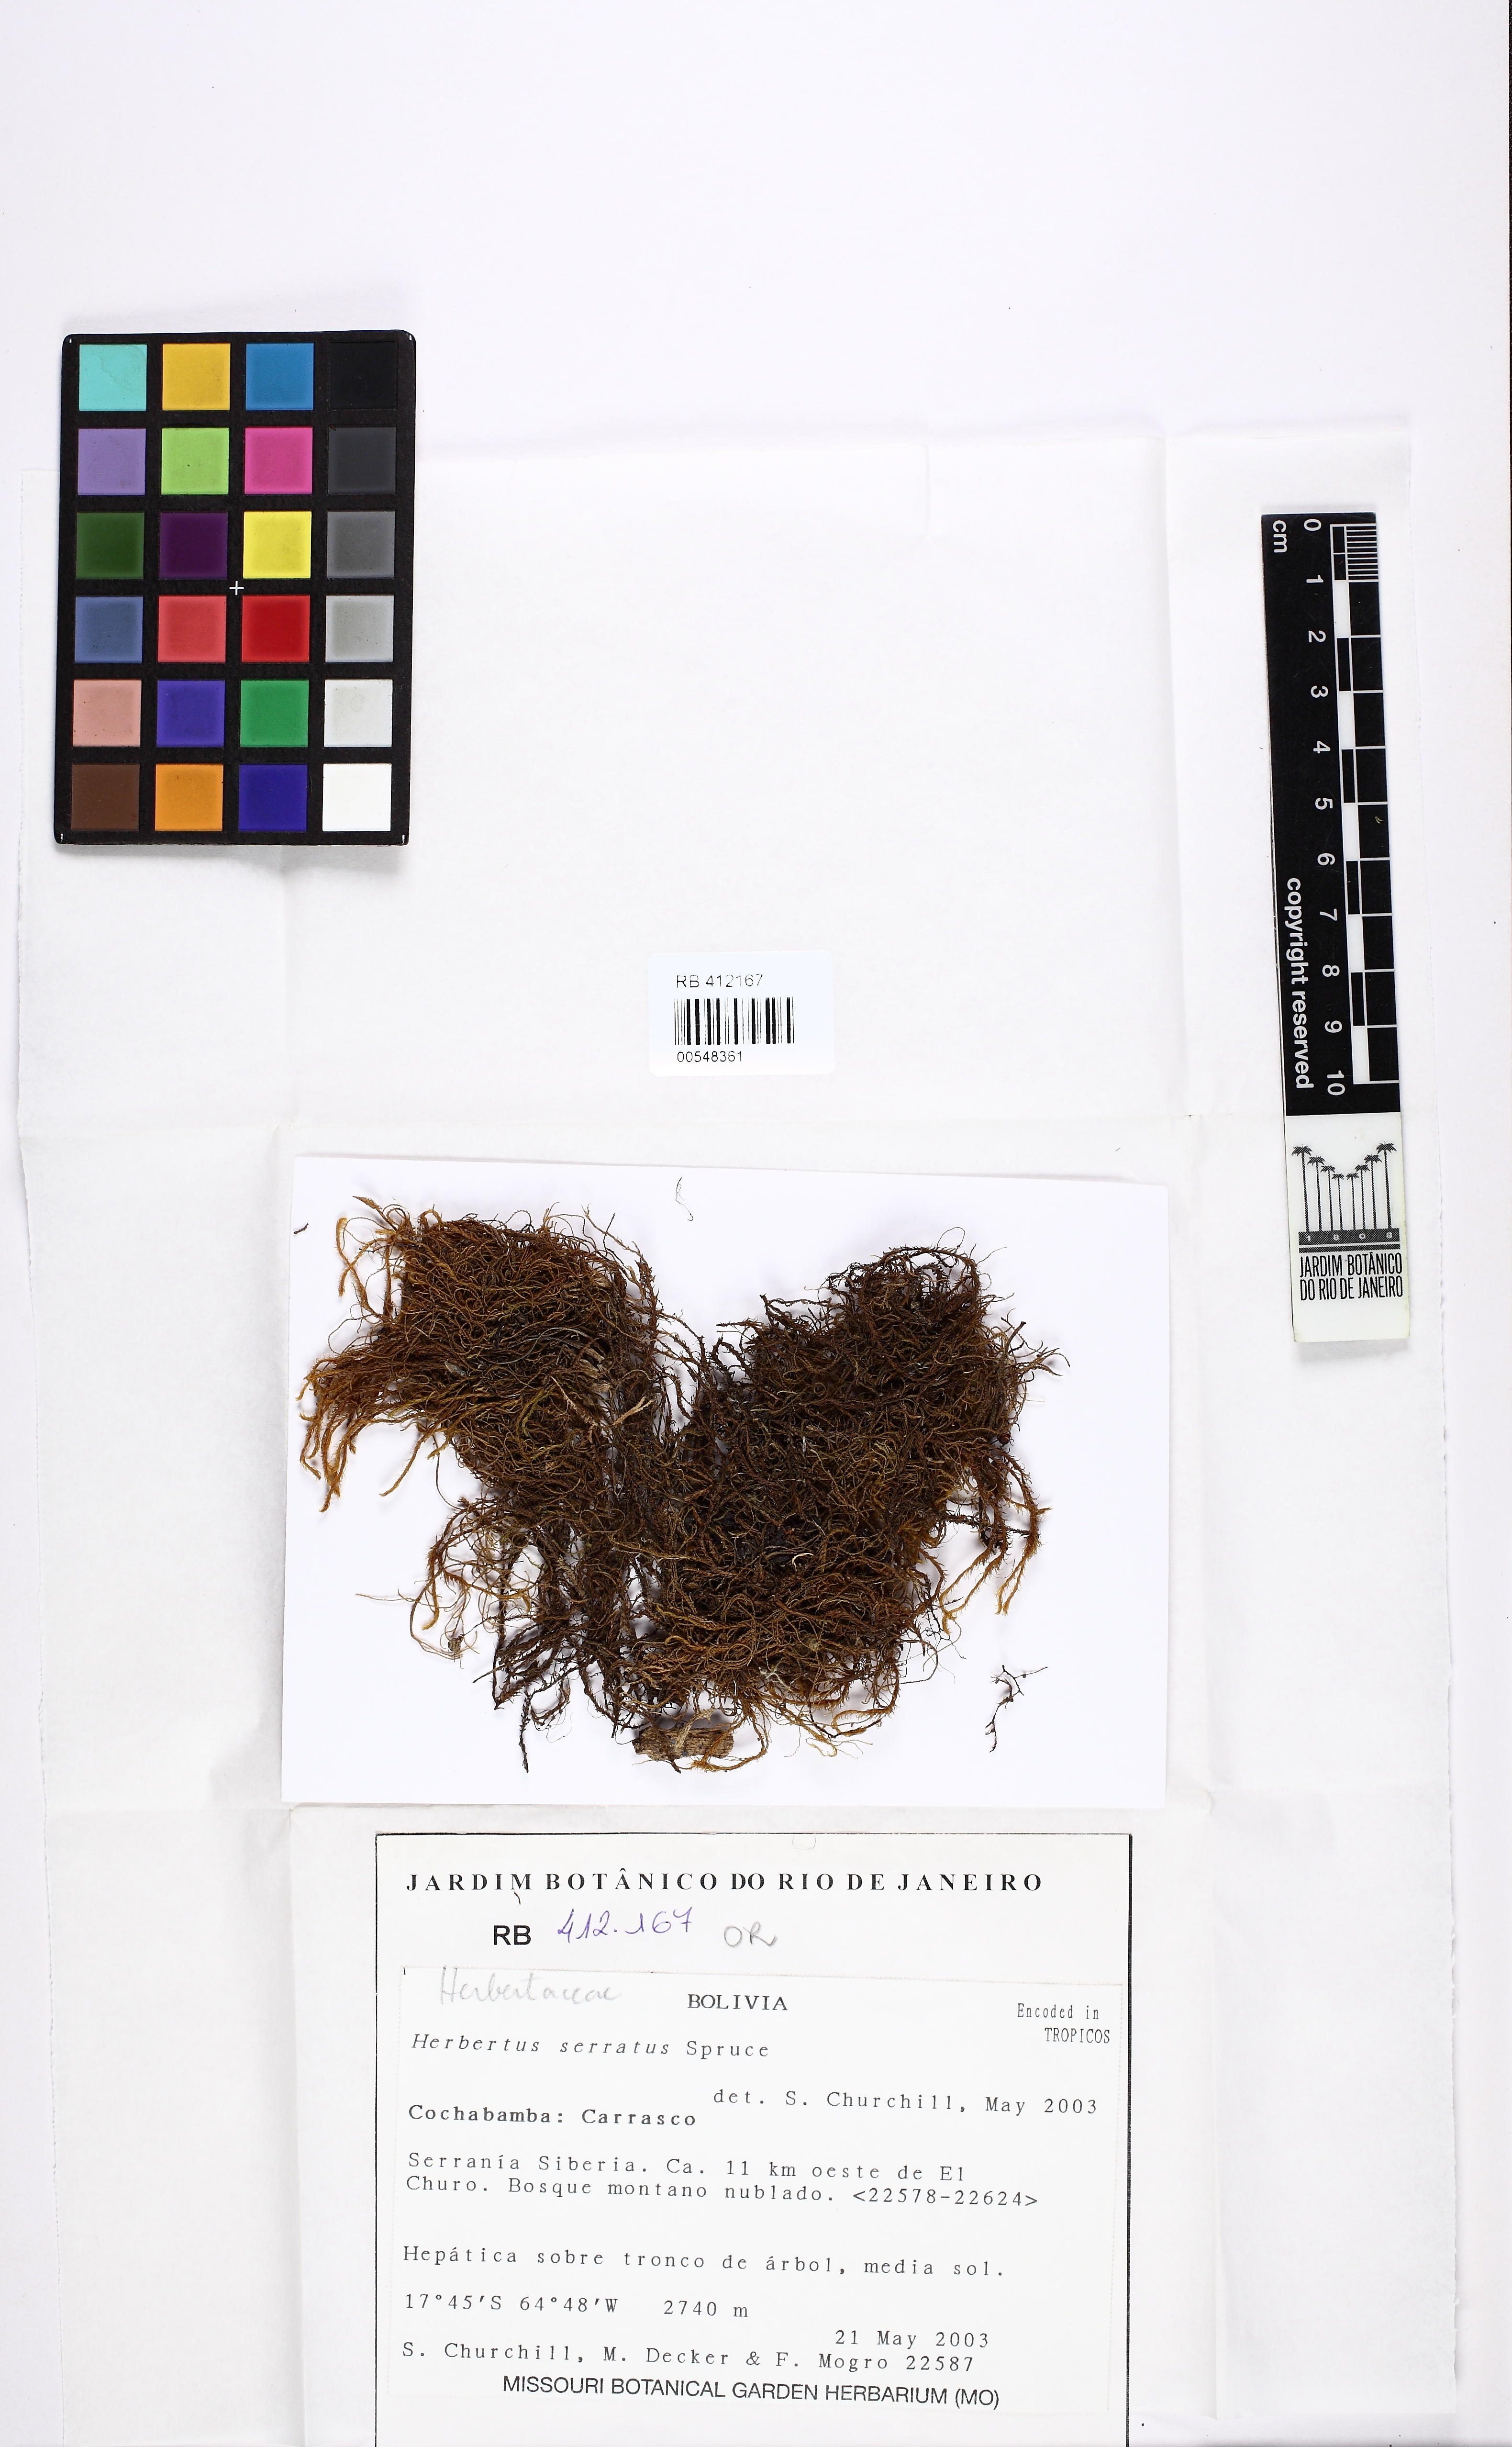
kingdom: Plantae
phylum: Marchantiophyta
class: Jungermanniopsida
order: Jungermanniales
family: Herbertaceae
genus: Herbertus
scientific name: Herbertus juniperoideus
